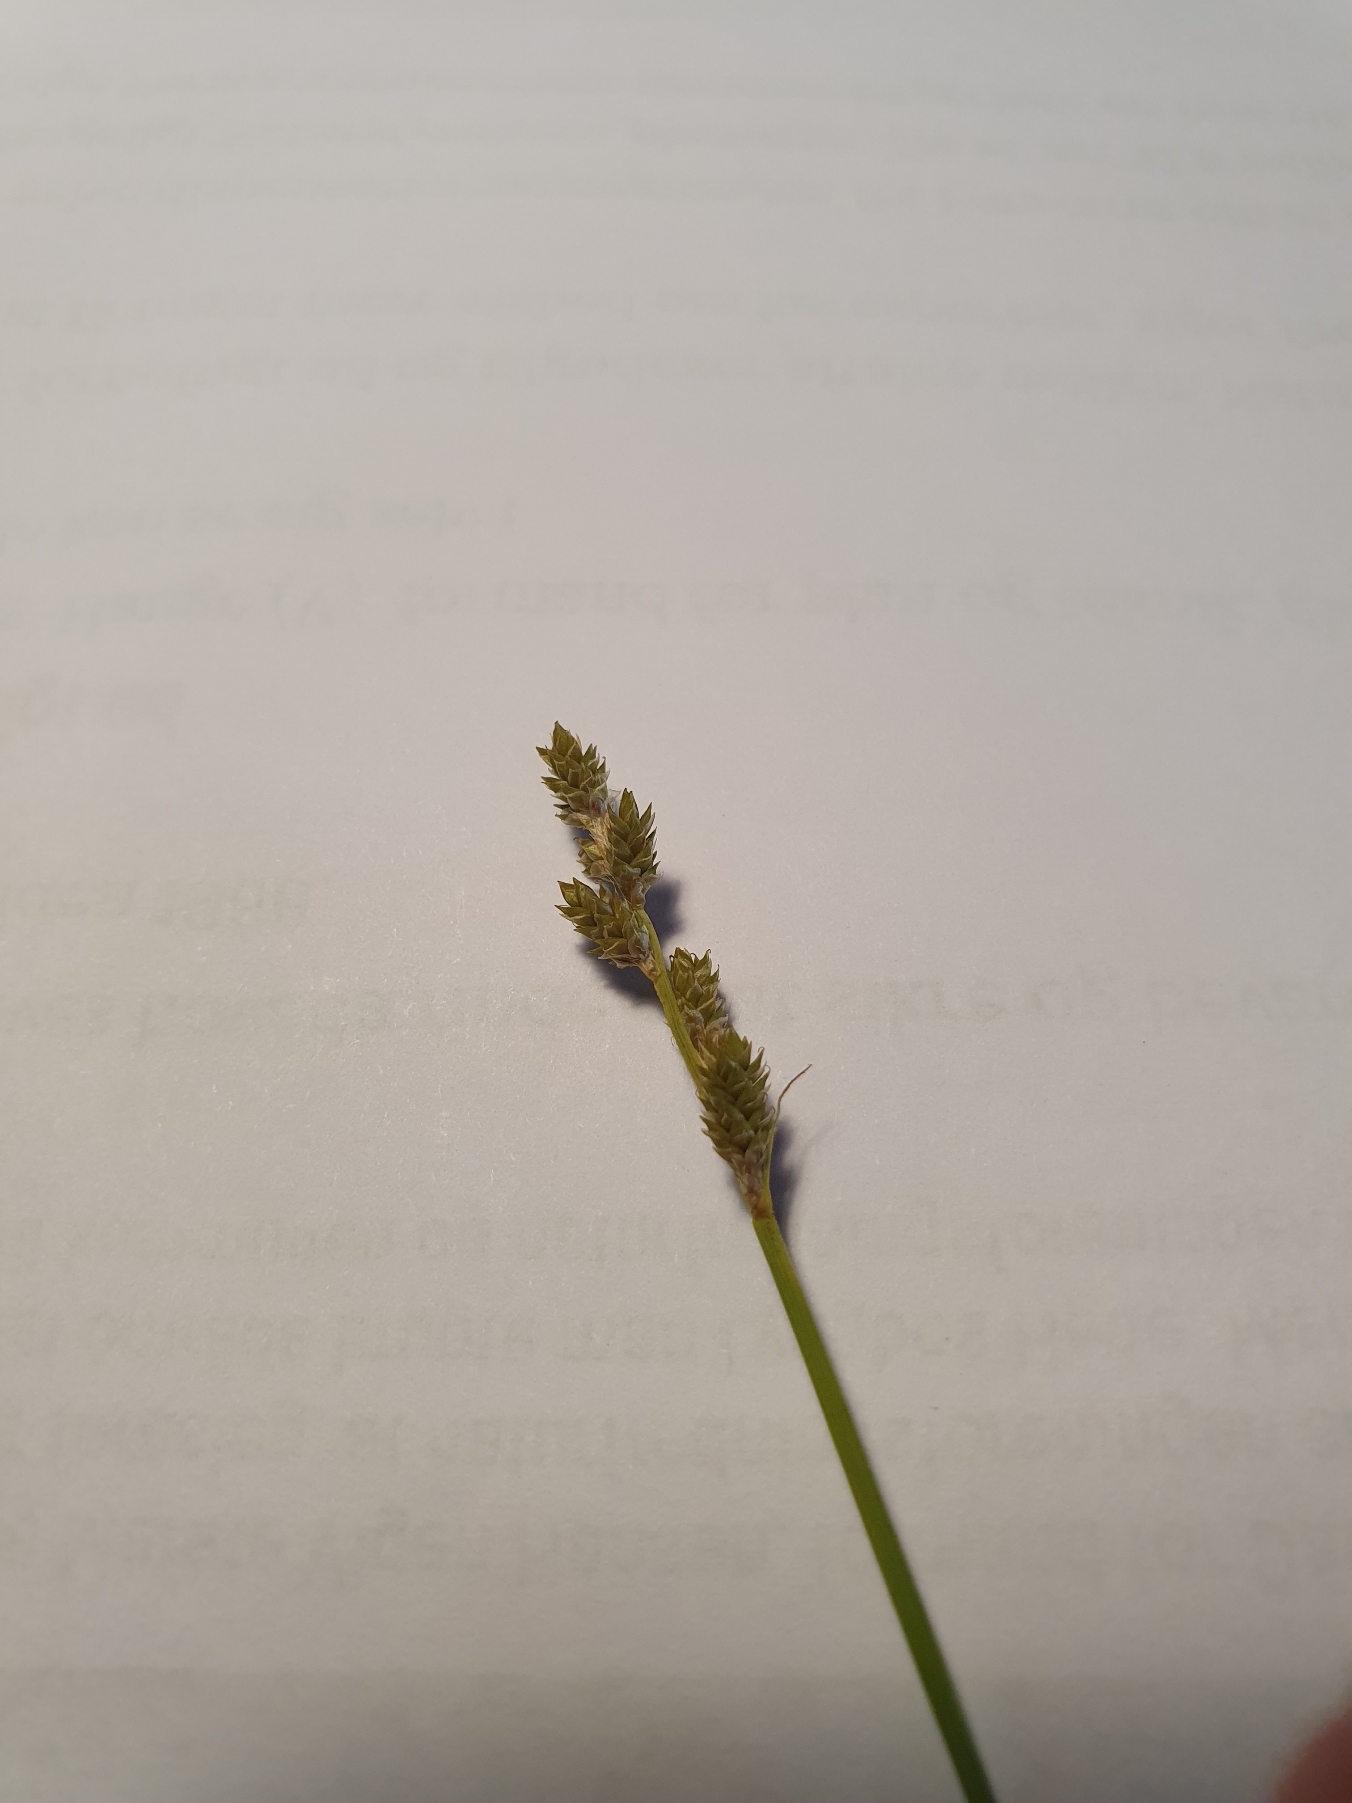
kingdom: Plantae
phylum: Tracheophyta
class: Liliopsida
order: Poales
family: Cyperaceae
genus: Carex
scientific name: Carex canescens
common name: Grå star
